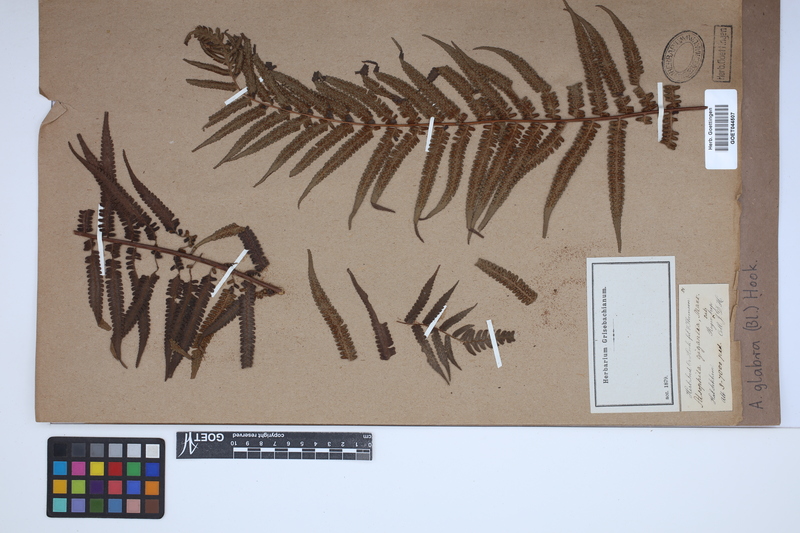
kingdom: Plantae
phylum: Tracheophyta
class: Polypodiopsida
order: Cyatheales
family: Cyatheaceae
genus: Gymnosphaera
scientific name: Gymnosphaera glabra
